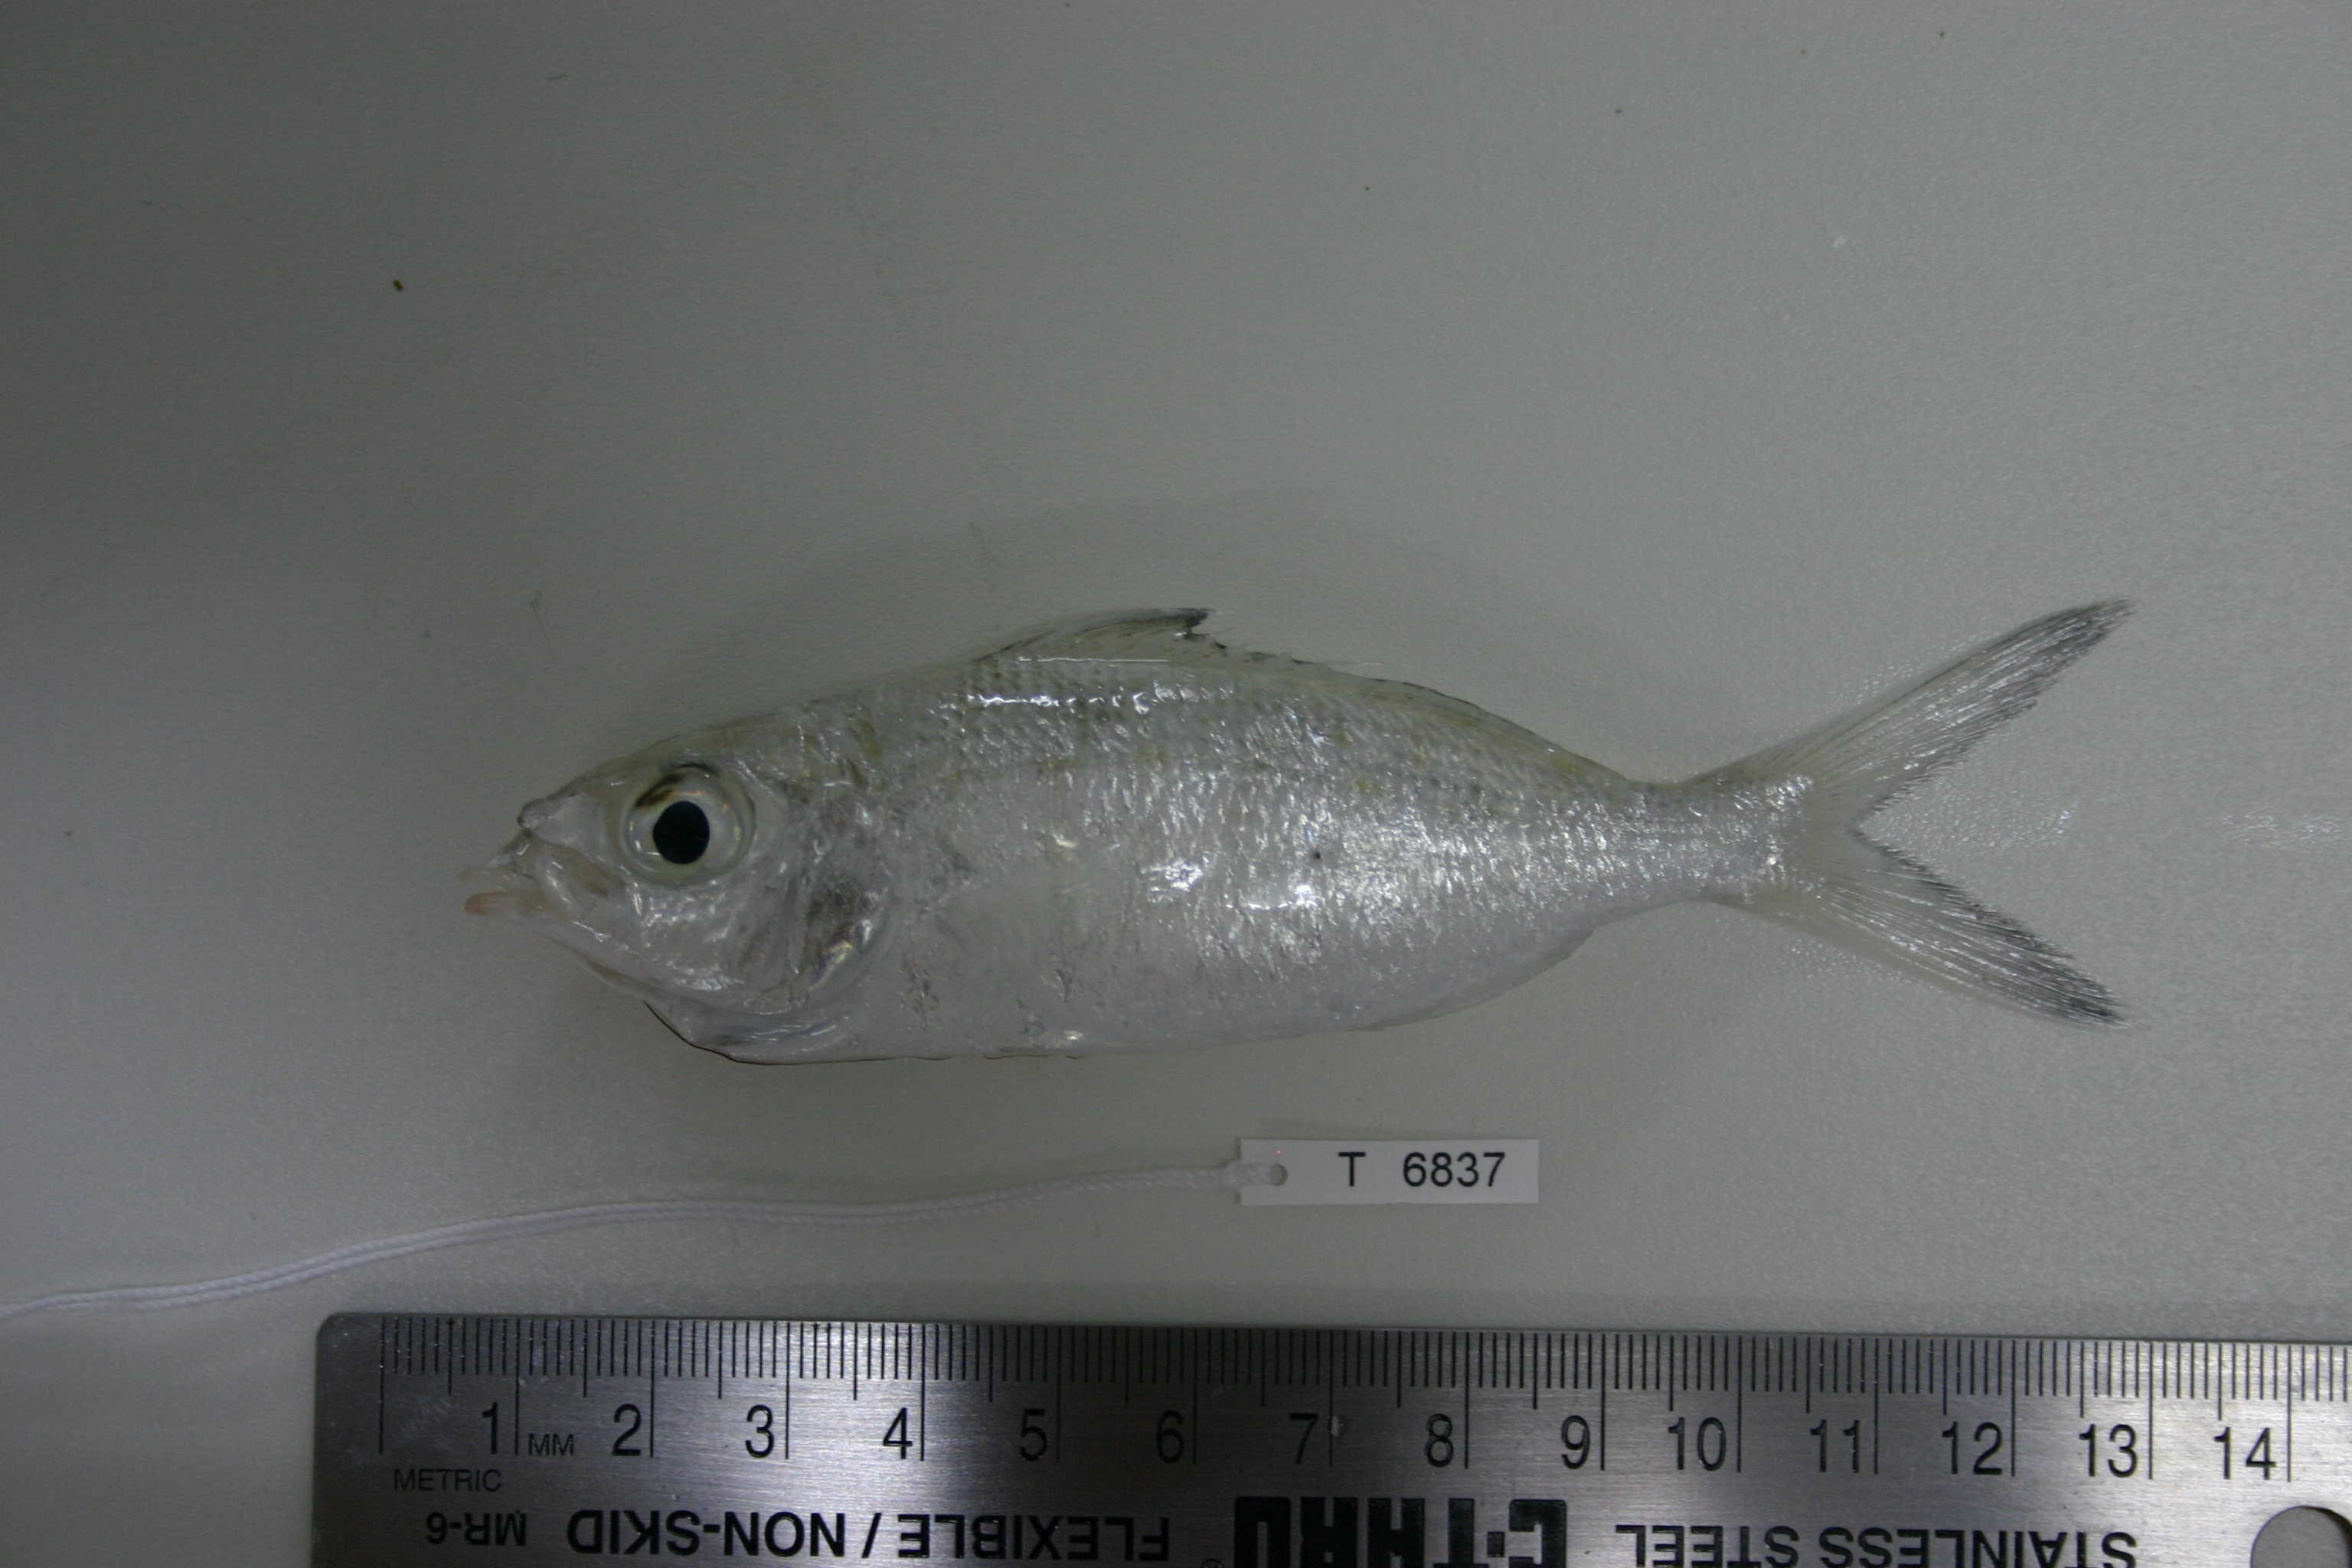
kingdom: Animalia
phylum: Chordata
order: Perciformes
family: Gerreidae
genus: Gerres
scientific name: Gerres oblongus
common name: Large-bodied silver-biddy
